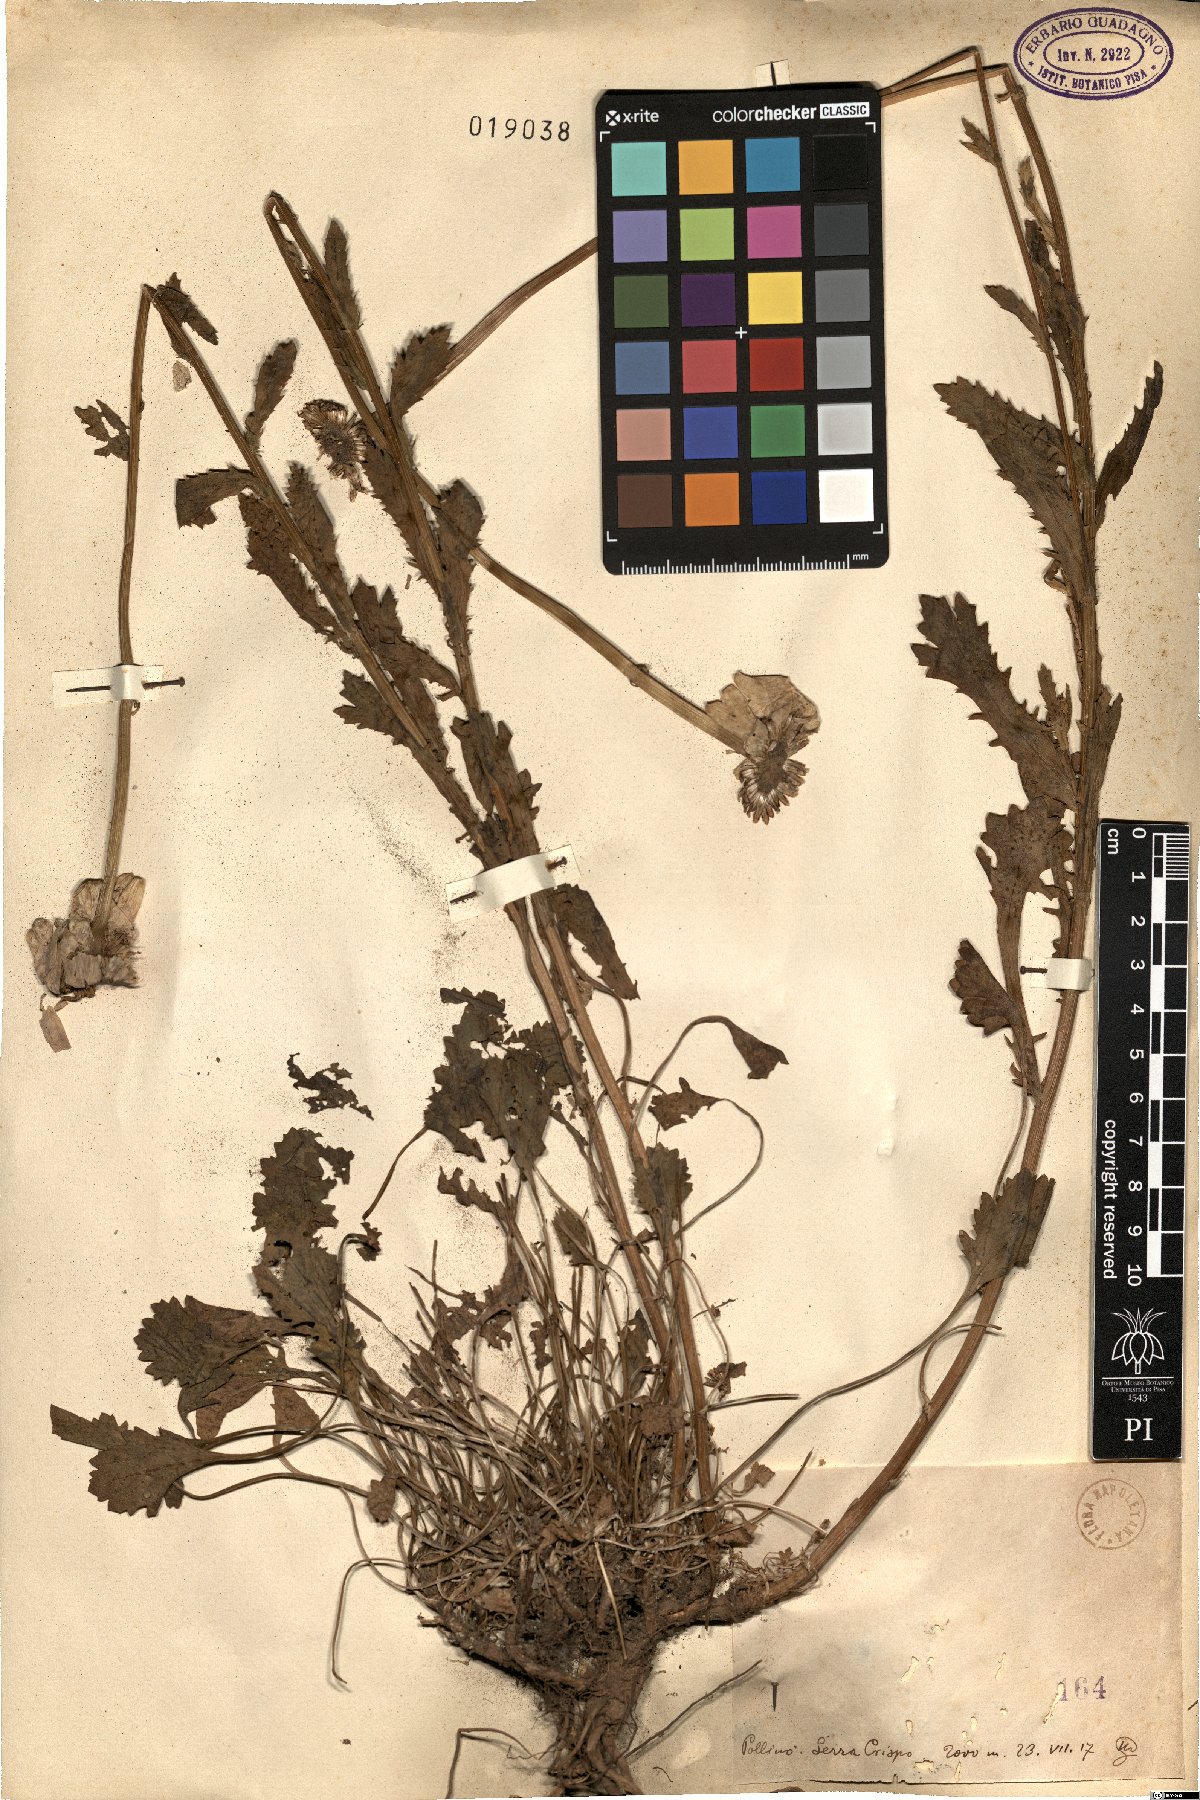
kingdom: Plantae
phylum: Tracheophyta
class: Magnoliopsida
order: Asterales
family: Asteraceae
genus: Pyrethrum
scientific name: Pyrethrum
